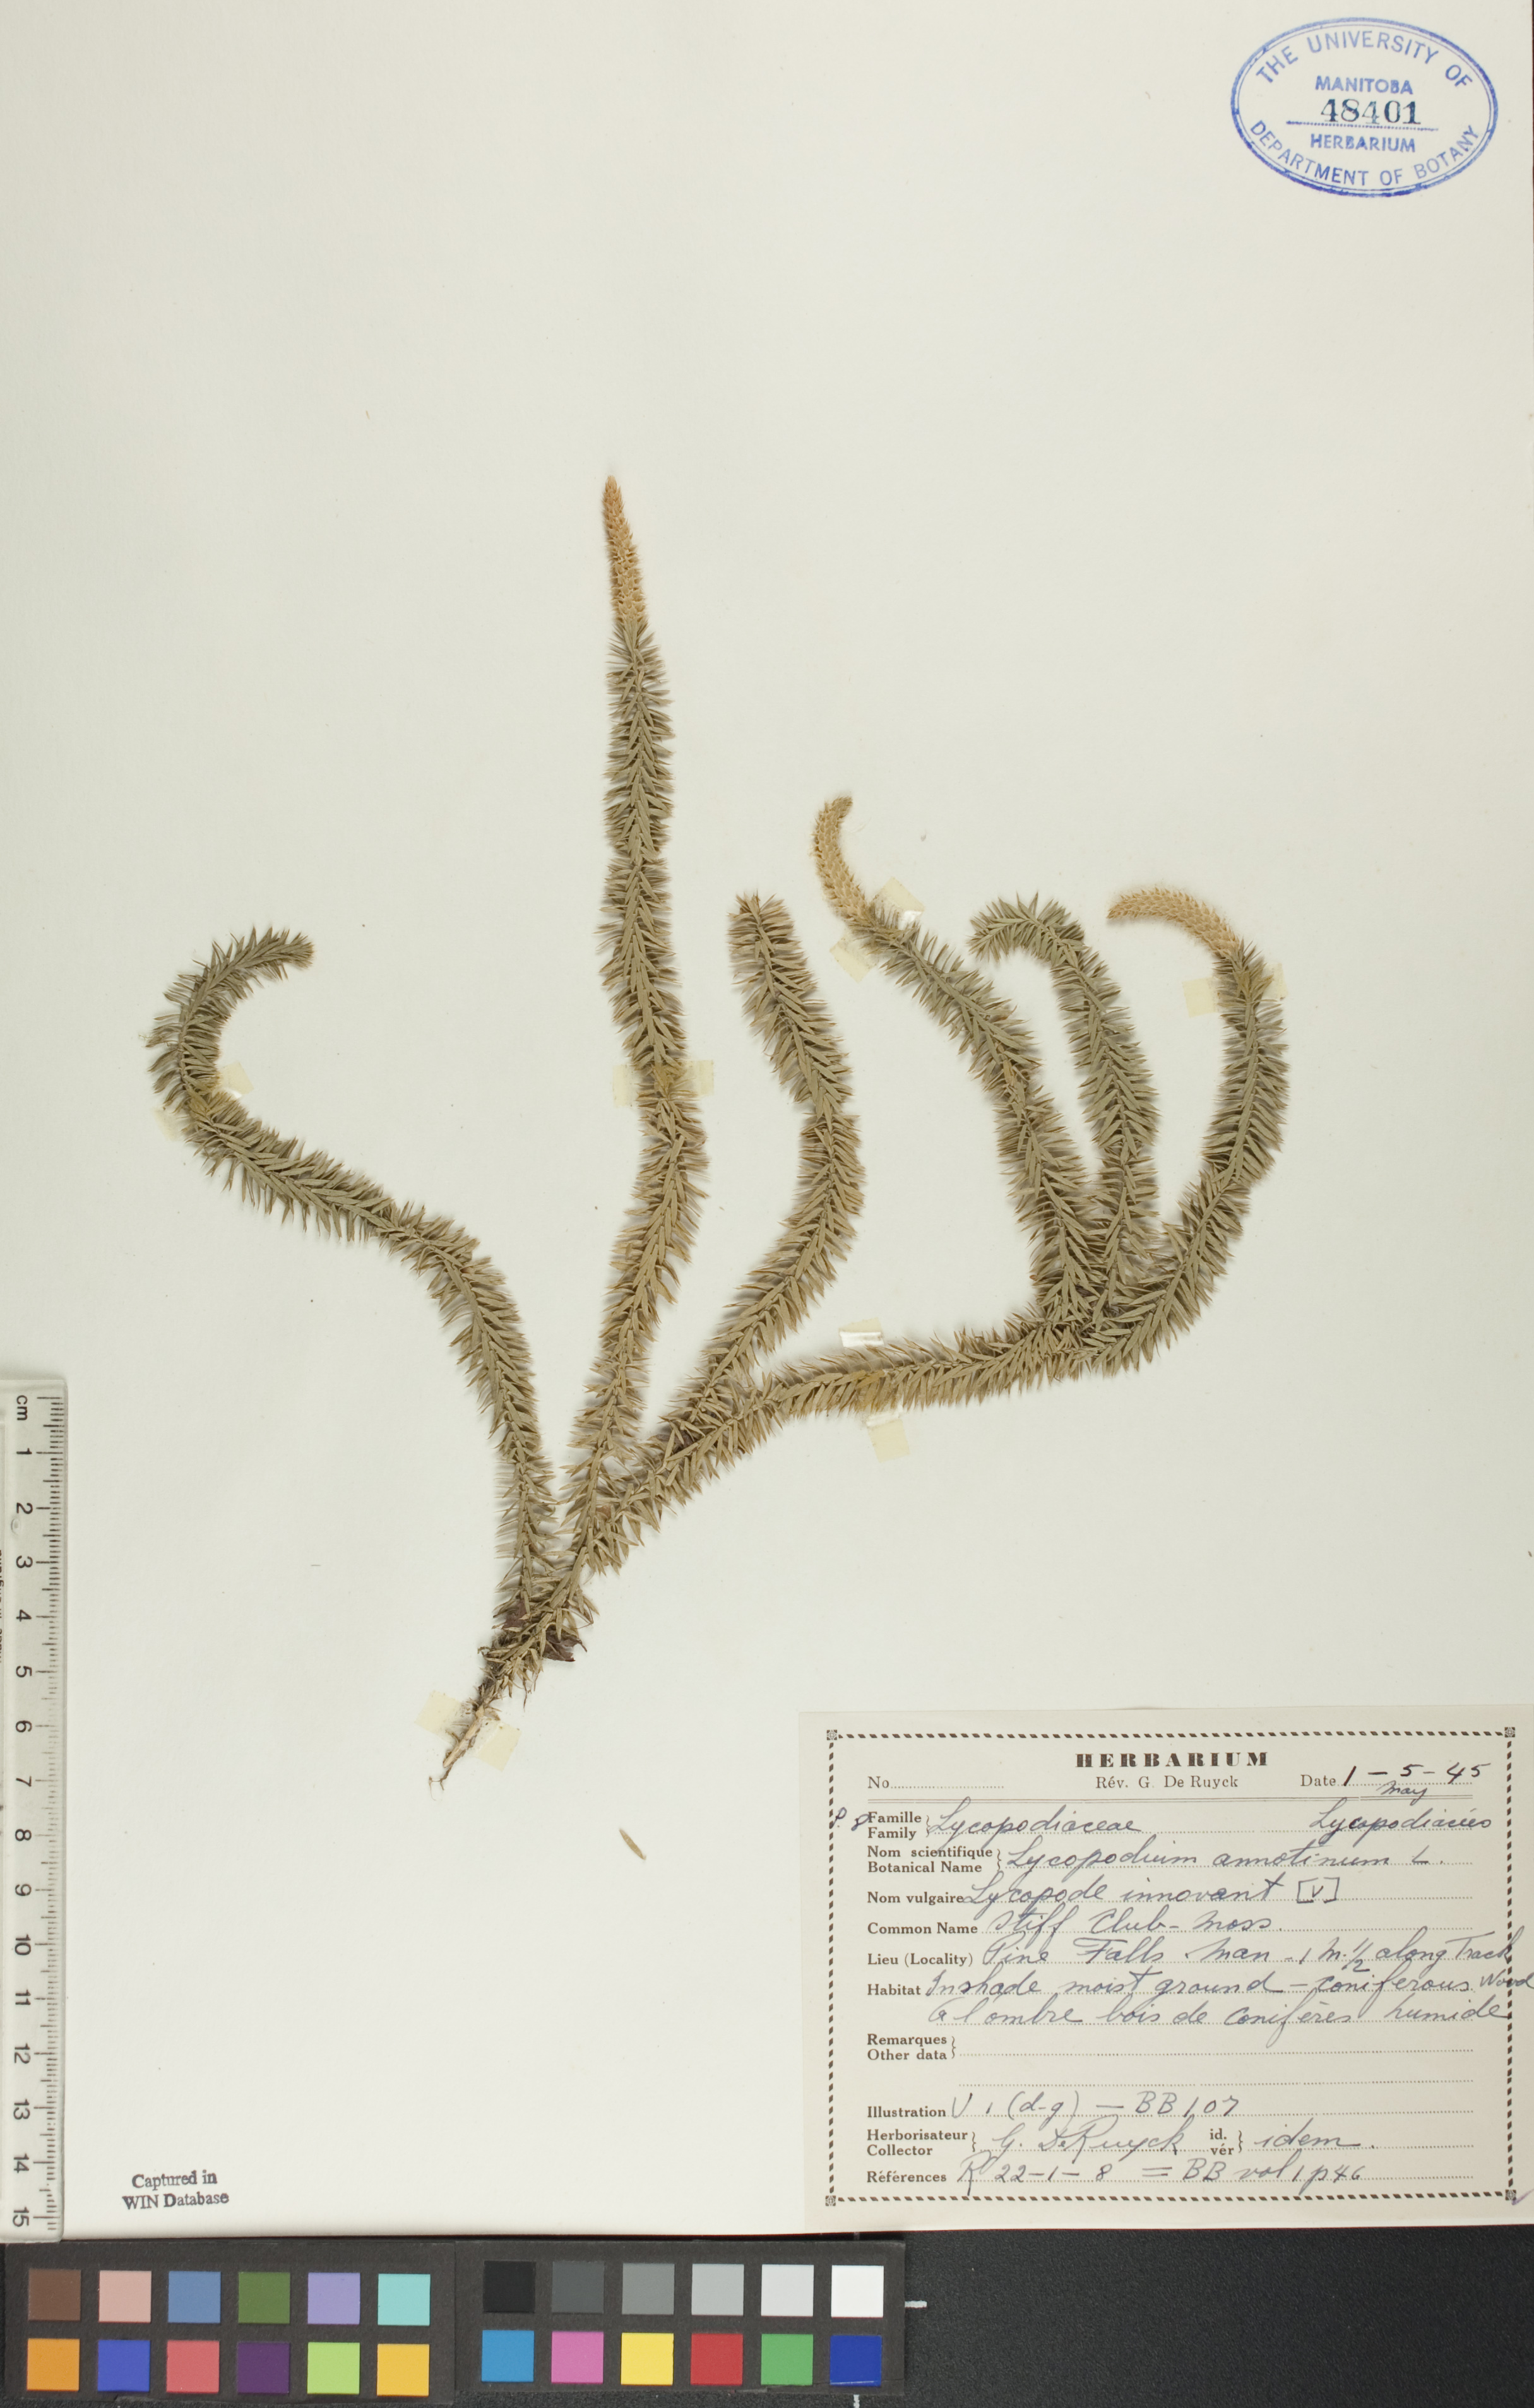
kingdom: Plantae
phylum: Tracheophyta
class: Lycopodiopsida
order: Lycopodiales
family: Lycopodiaceae
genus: Spinulum
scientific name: Spinulum annotinum
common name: Interrupted club-moss
